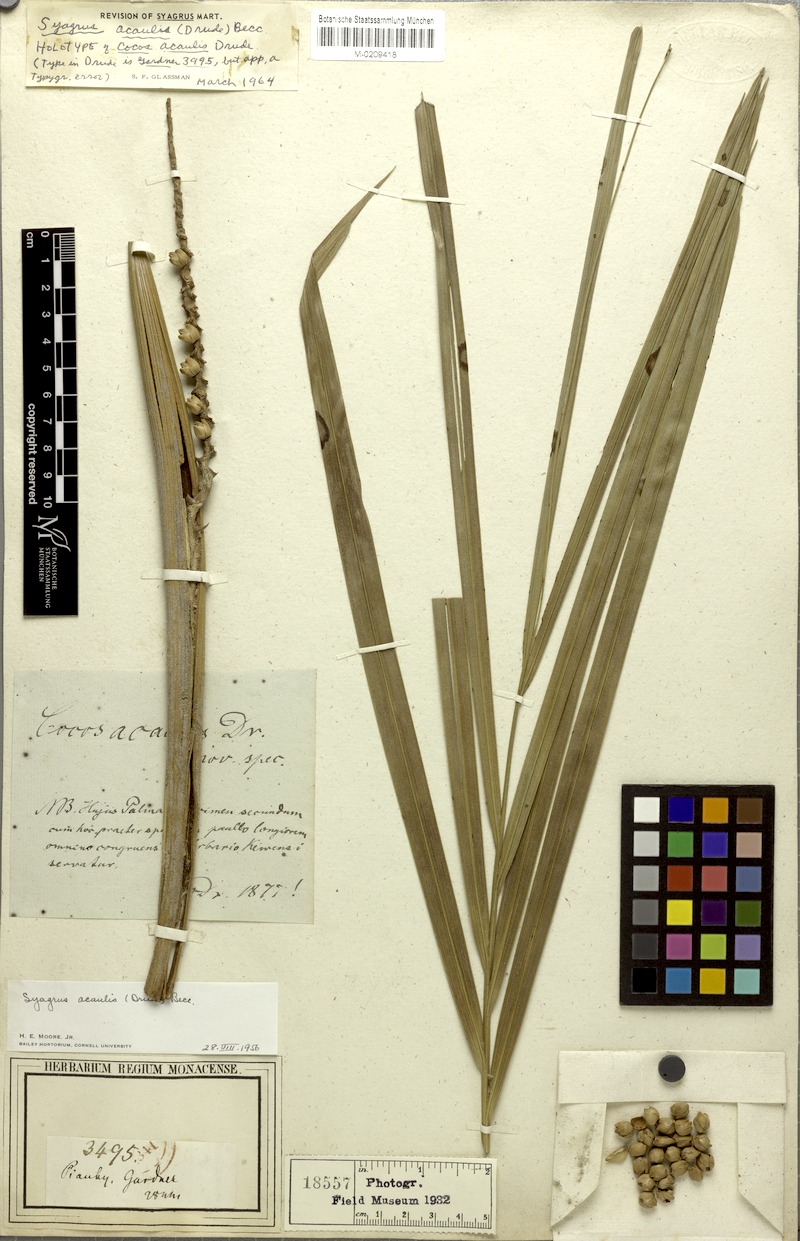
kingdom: Plantae
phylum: Tracheophyta
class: Liliopsida
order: Arecales
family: Arecaceae
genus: Syagrus
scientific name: Syagrus comosa
